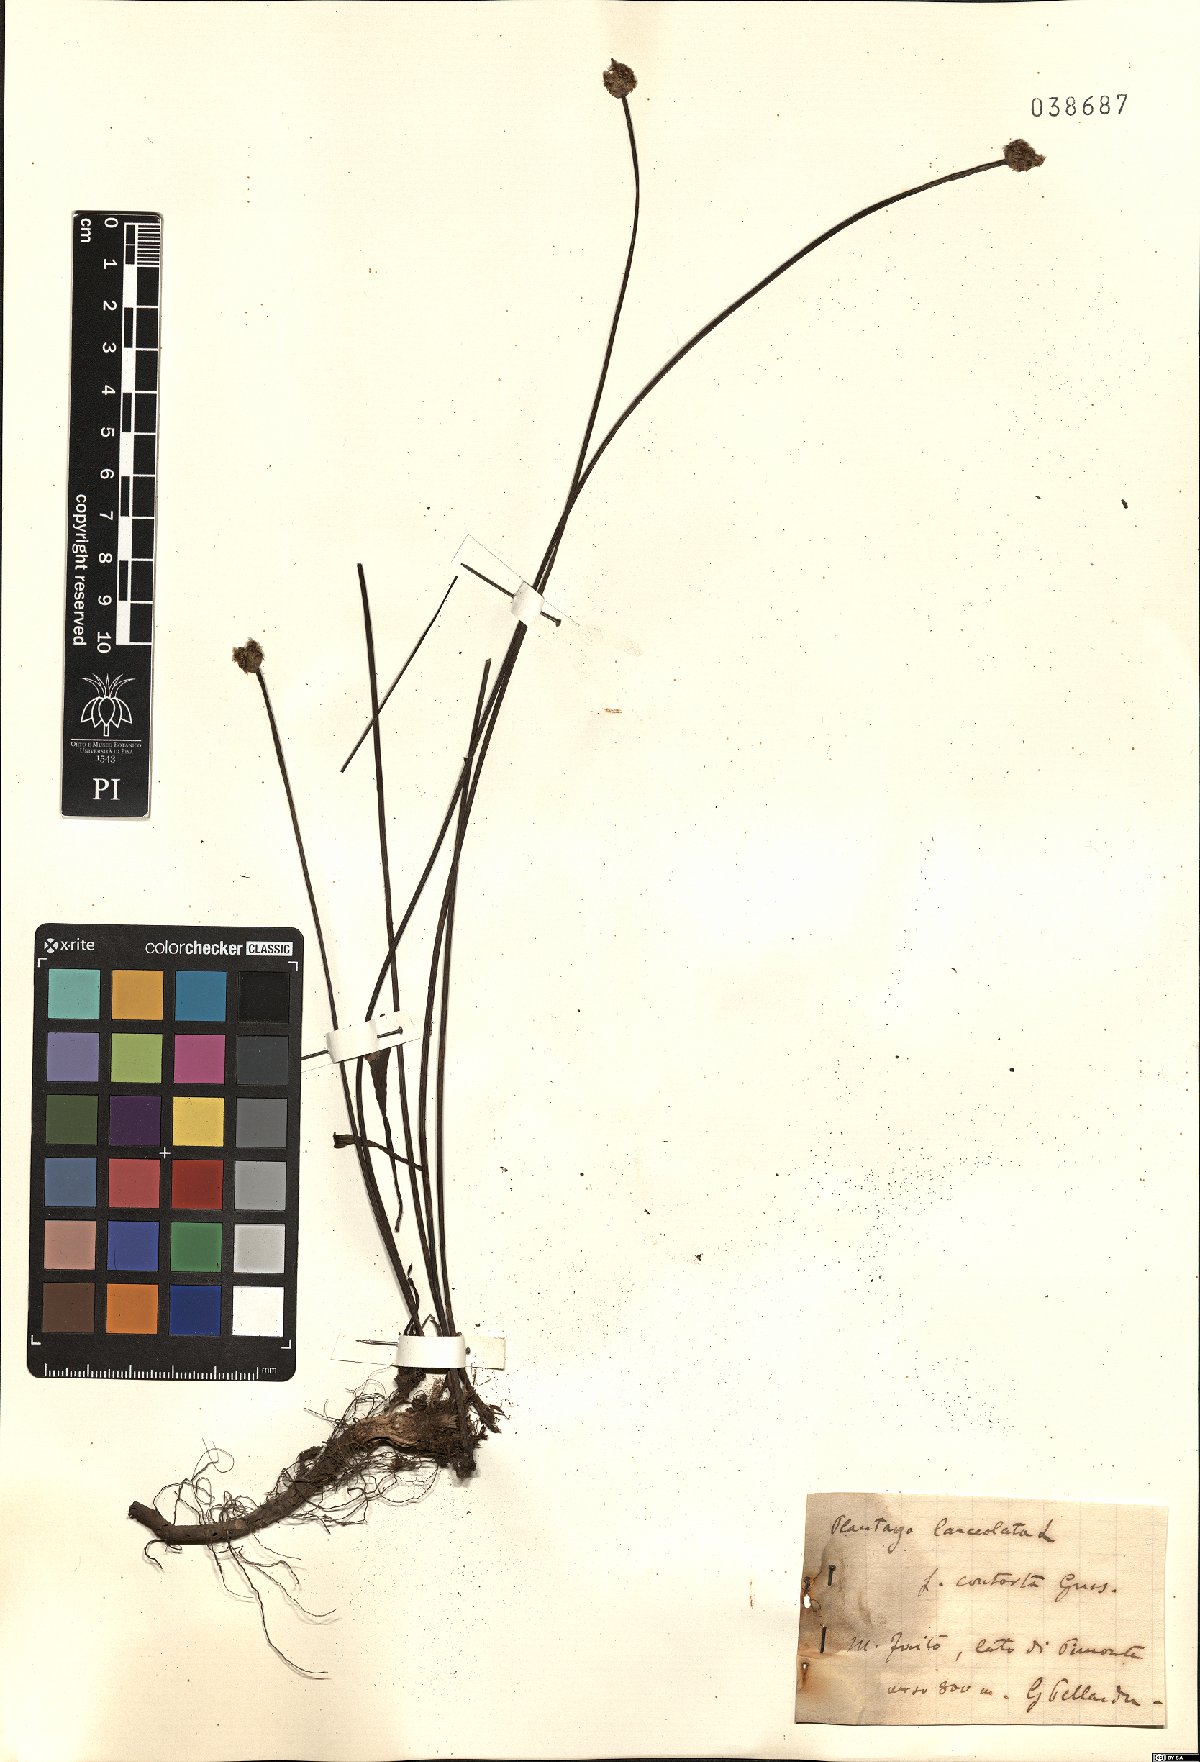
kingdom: Plantae
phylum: Tracheophyta
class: Magnoliopsida
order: Lamiales
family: Plantaginaceae
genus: Plantago
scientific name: Plantago lanceolata
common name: Ribwort plantain
